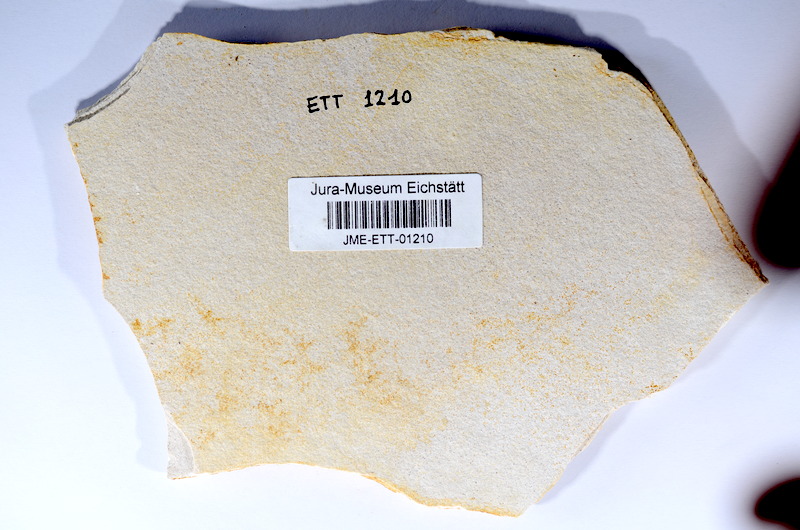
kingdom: Animalia
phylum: Chordata
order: Salmoniformes
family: Orthogonikleithridae
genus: Orthogonikleithrus
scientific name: Orthogonikleithrus hoelli
